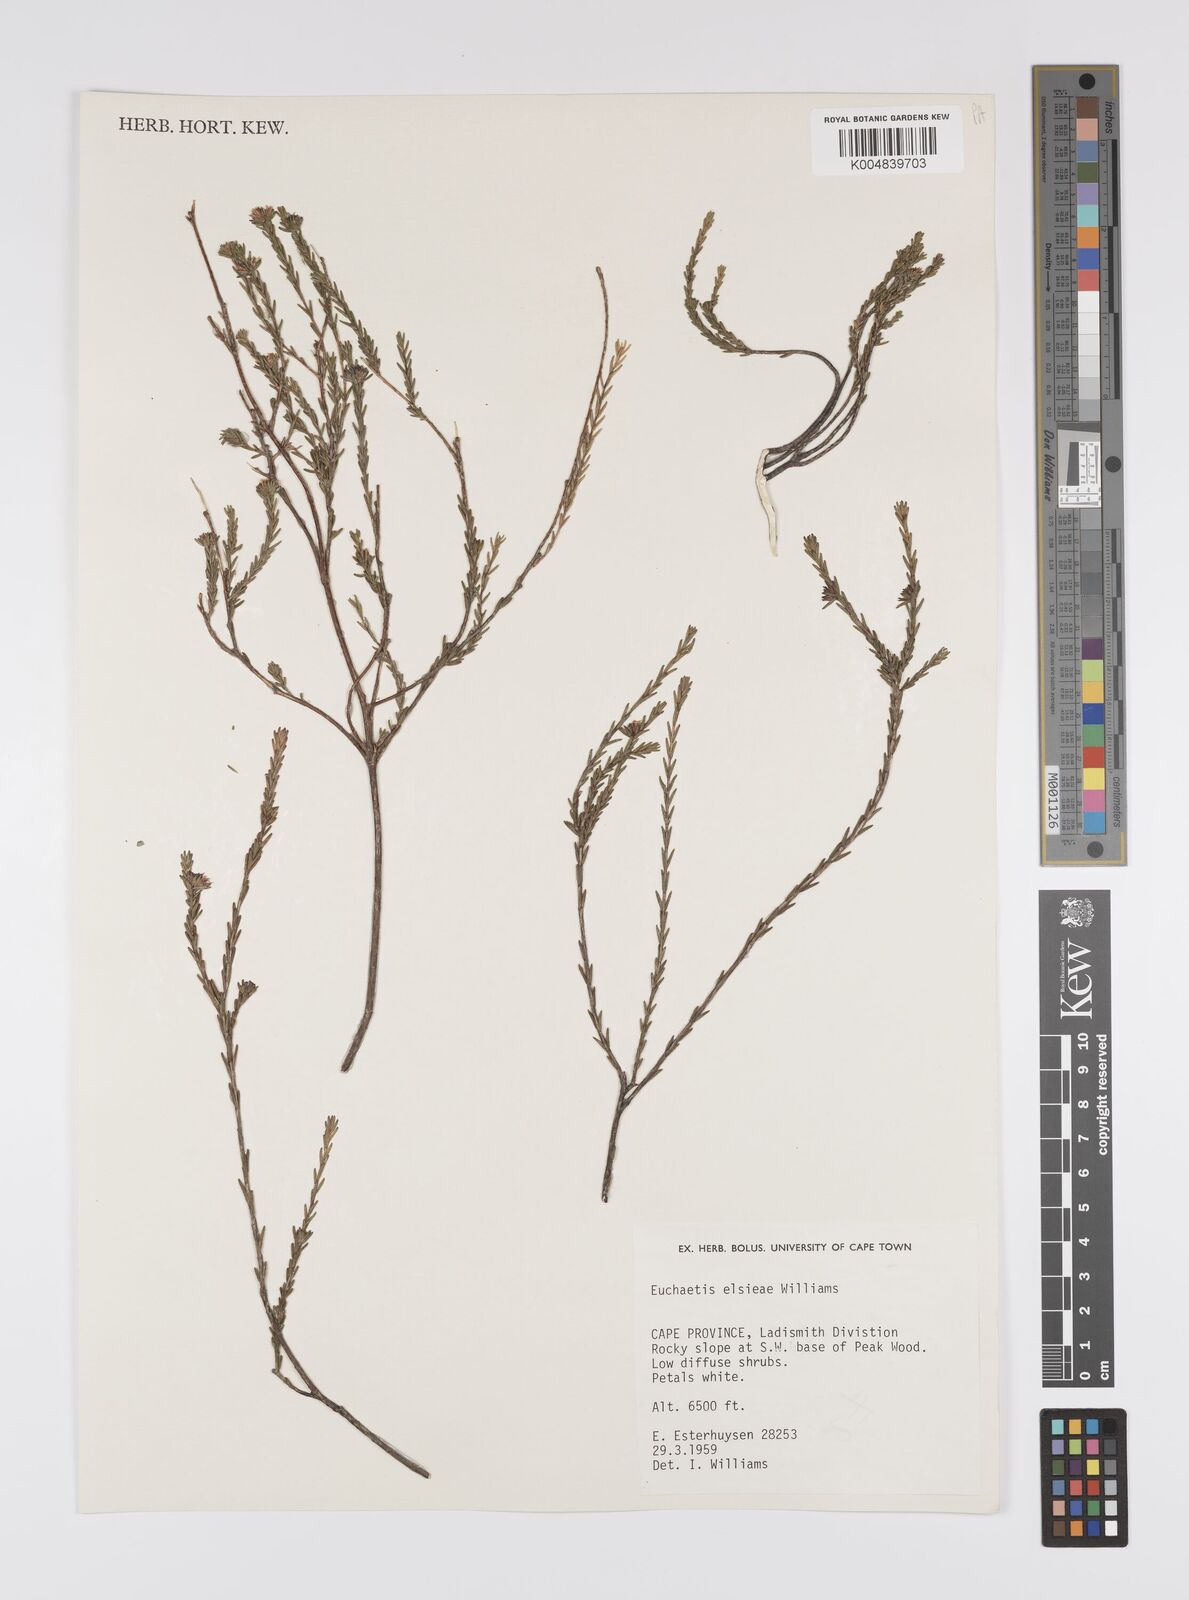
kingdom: Plantae
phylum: Tracheophyta
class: Magnoliopsida
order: Sapindales
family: Rutaceae
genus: Euchaetis
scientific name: Euchaetis elsieae
